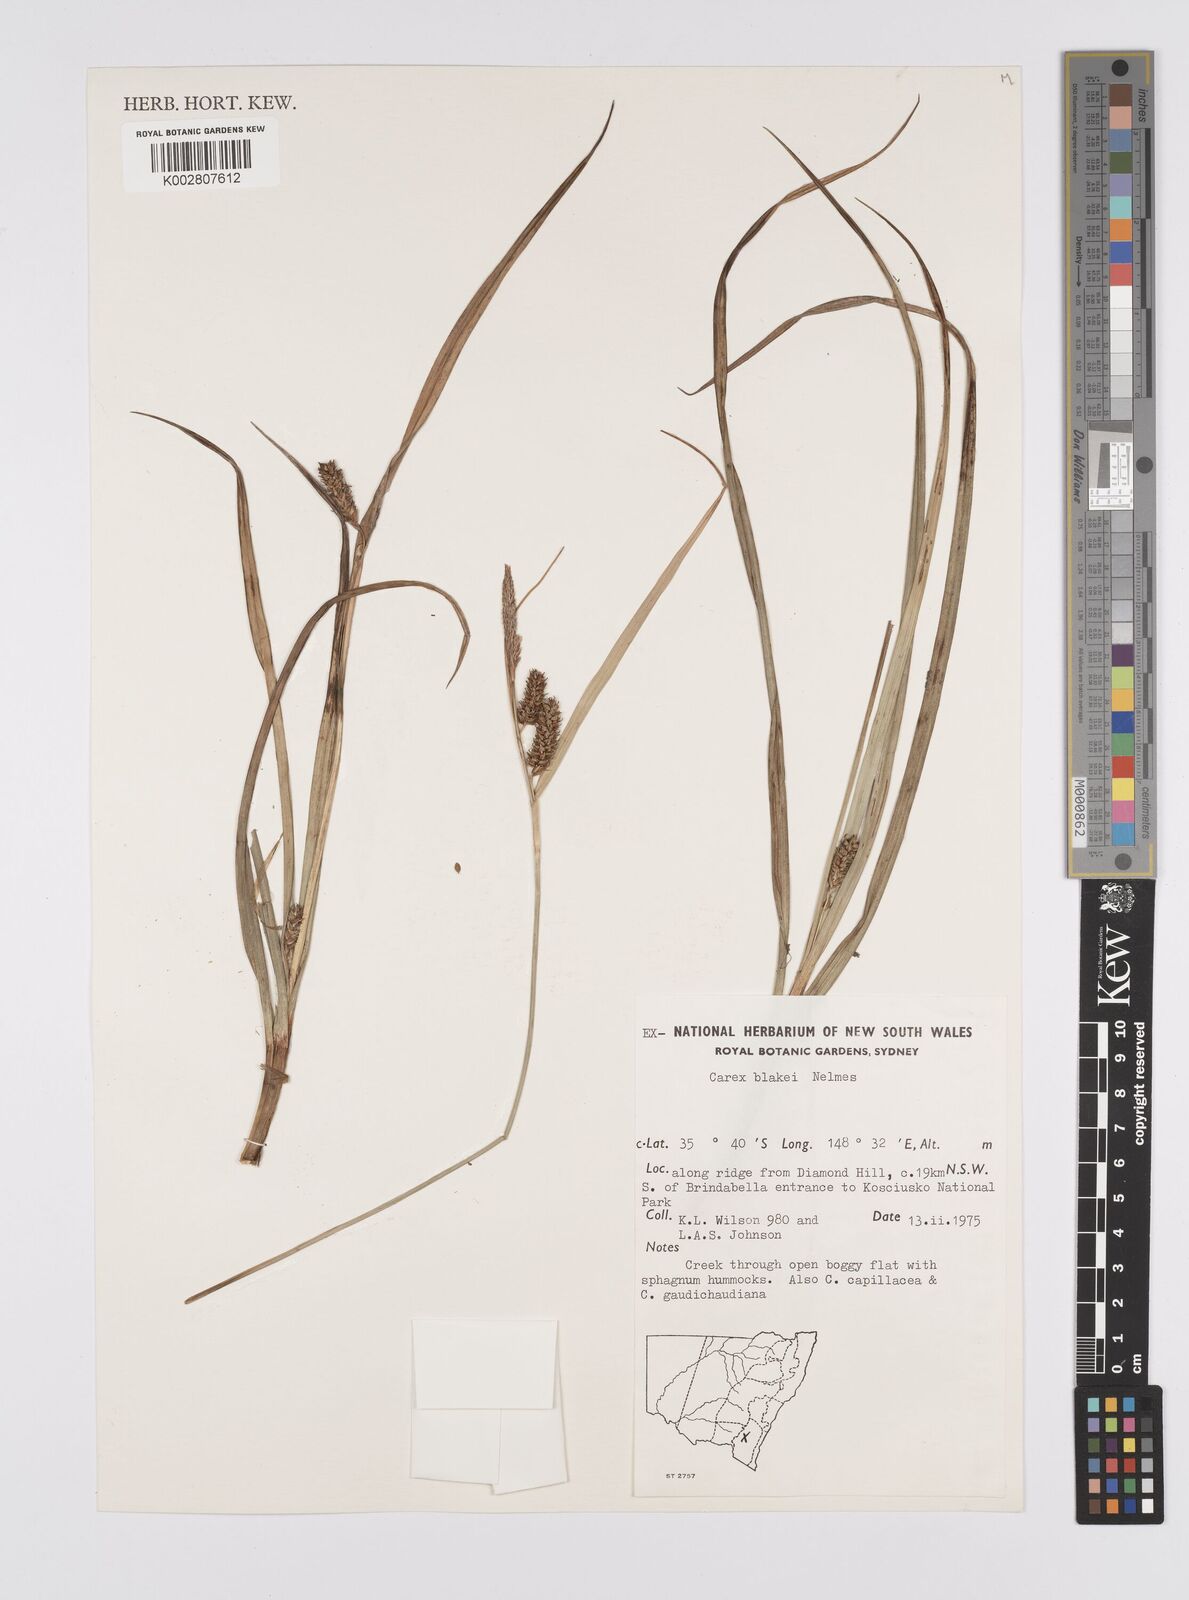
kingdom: Plantae
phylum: Tracheophyta
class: Liliopsida
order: Poales
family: Cyperaceae
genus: Carex
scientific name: Carex blakei
